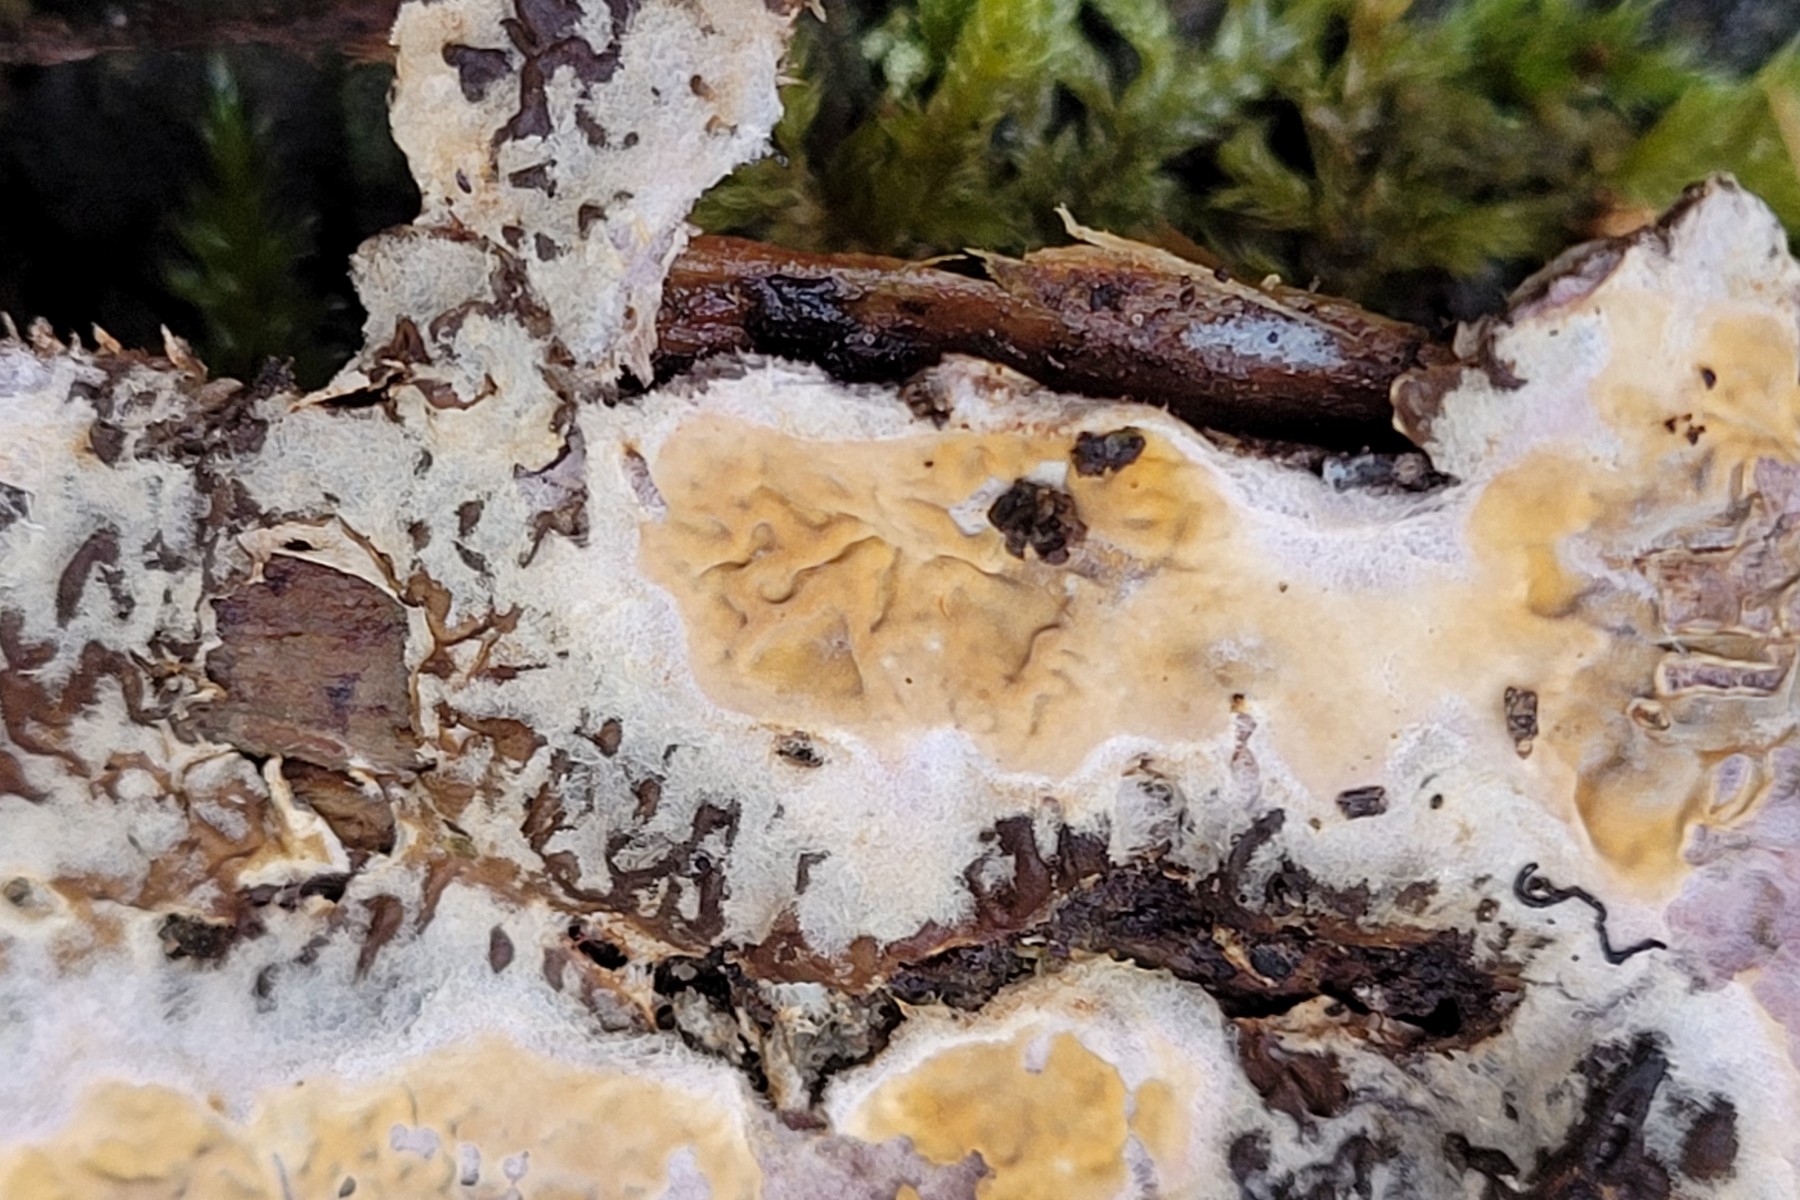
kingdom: Fungi
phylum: Basidiomycota
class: Agaricomycetes
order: Boletales
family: Serpulaceae
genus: Serpula
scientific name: Serpula himantioides
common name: tyndkødet hussvamp
